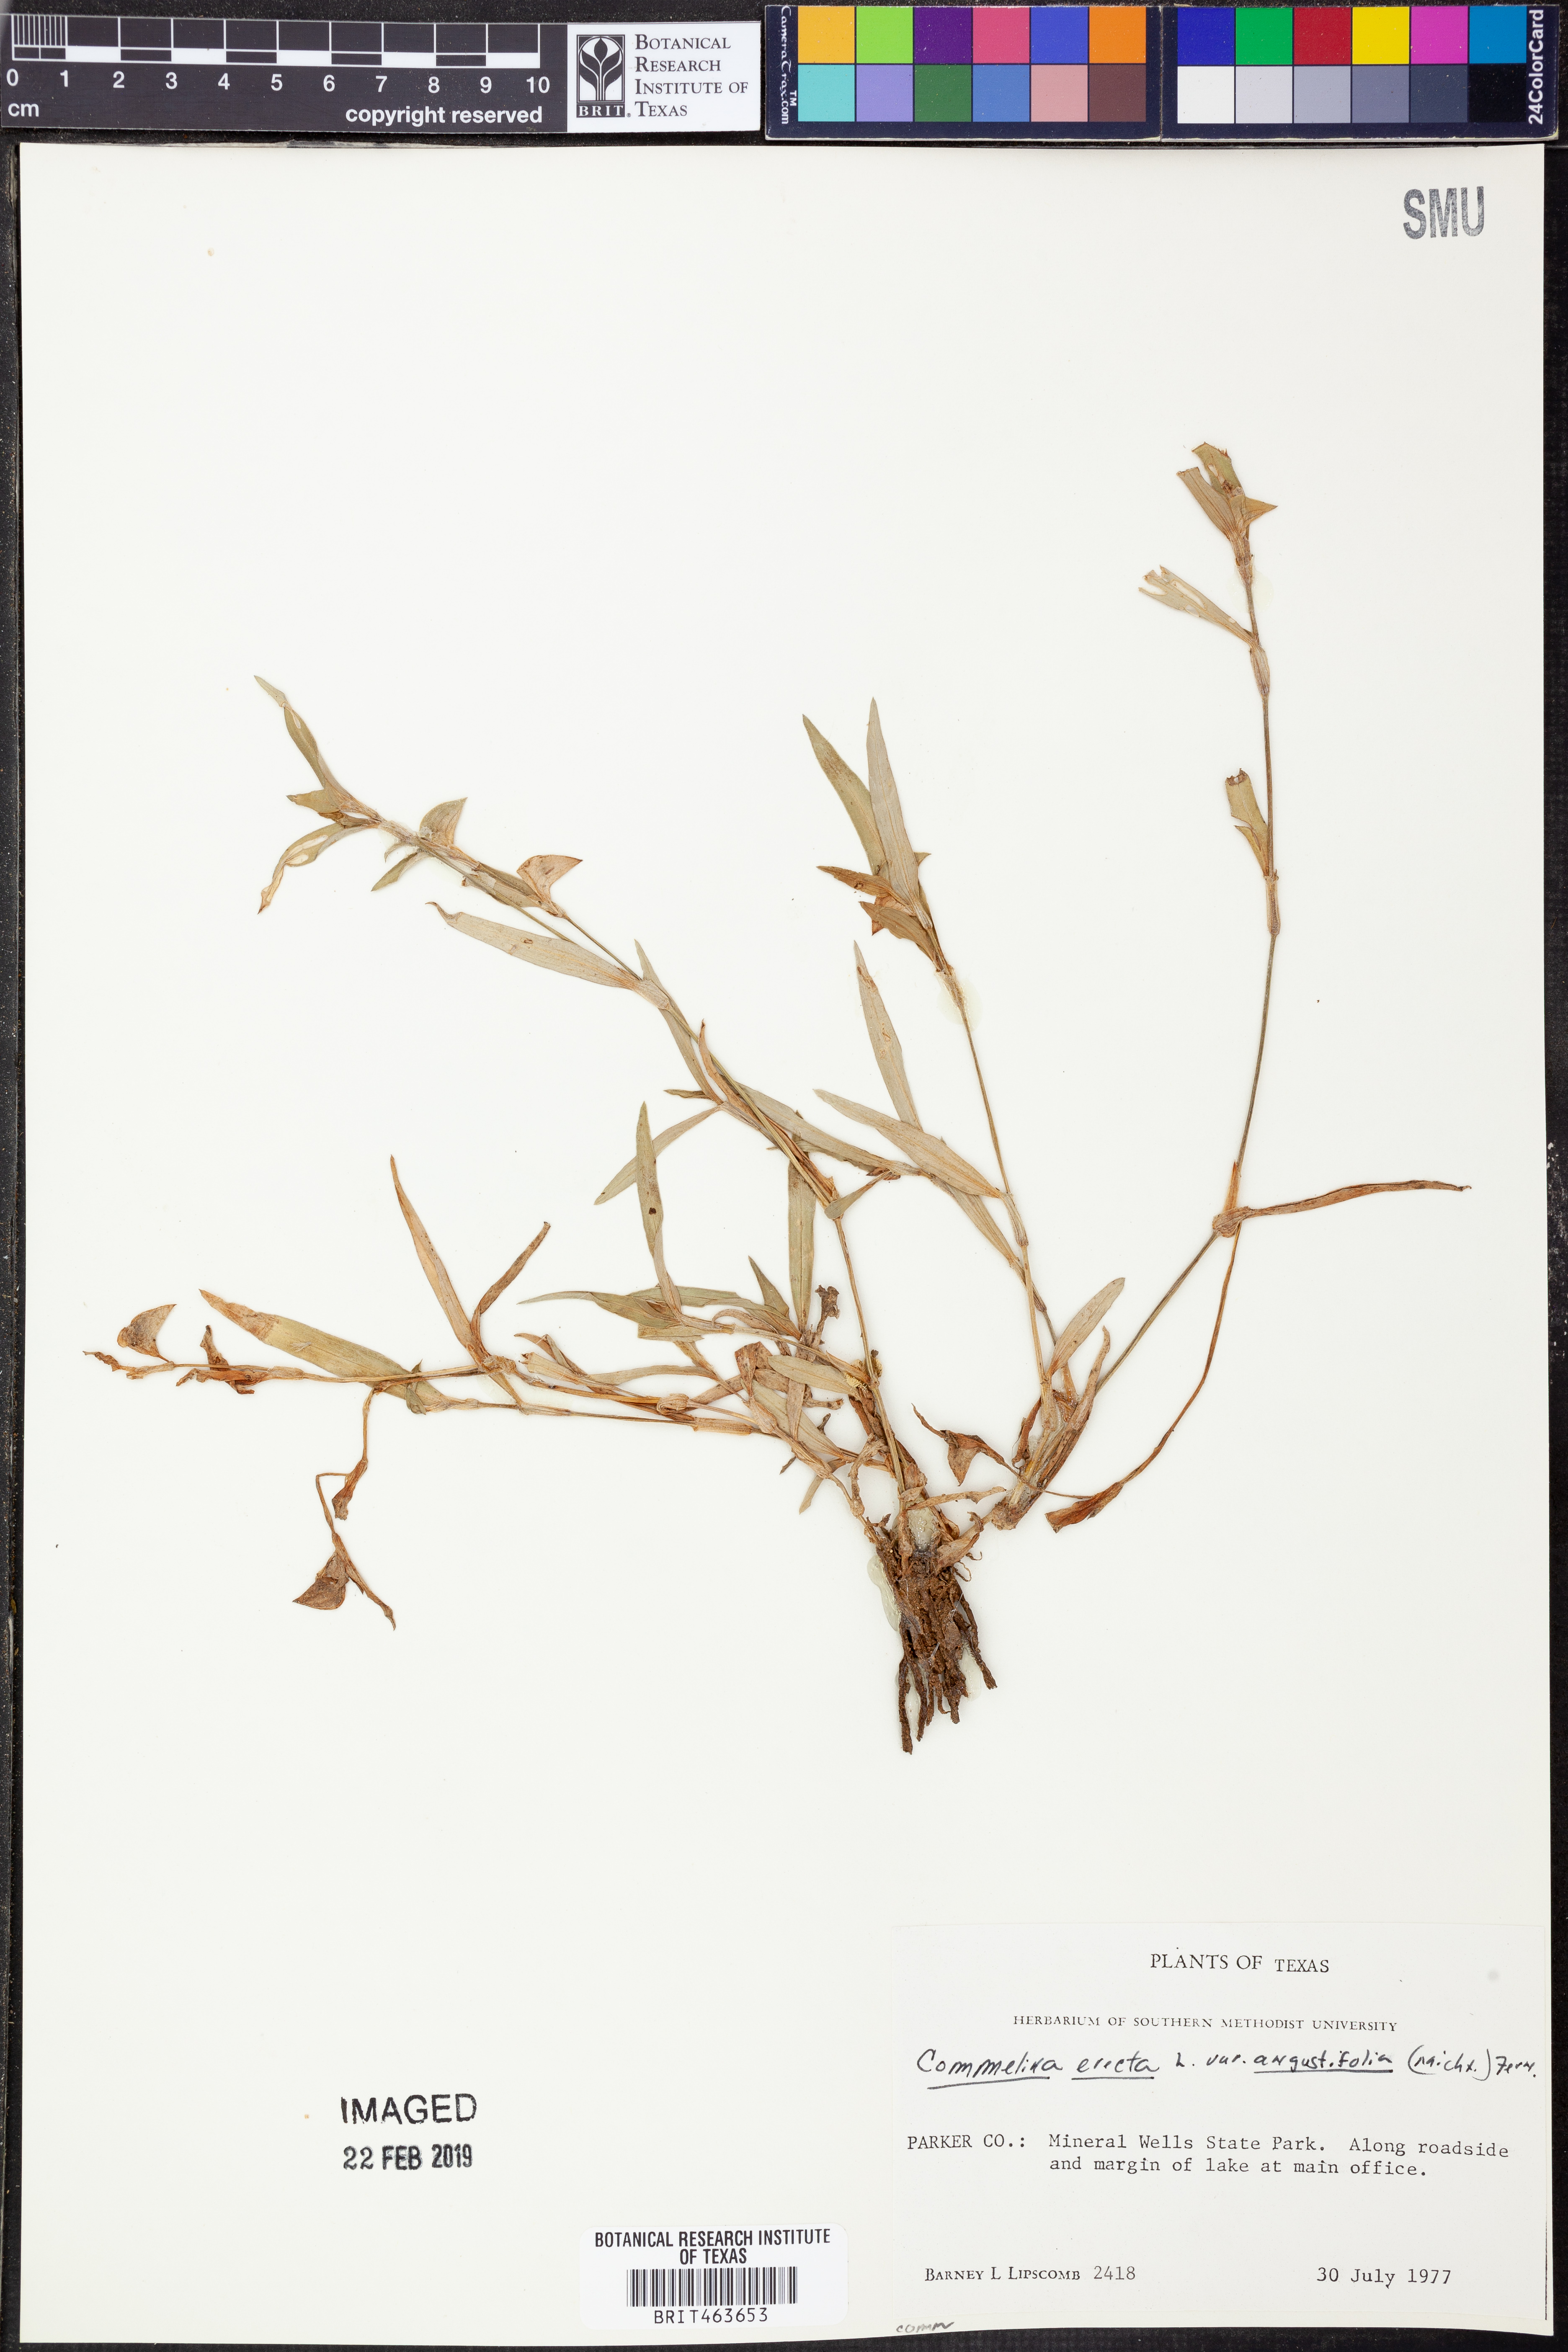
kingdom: Plantae
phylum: Tracheophyta
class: Liliopsida
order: Commelinales
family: Commelinaceae
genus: Commelina
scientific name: Commelina erecta
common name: Blousel blommetjie
